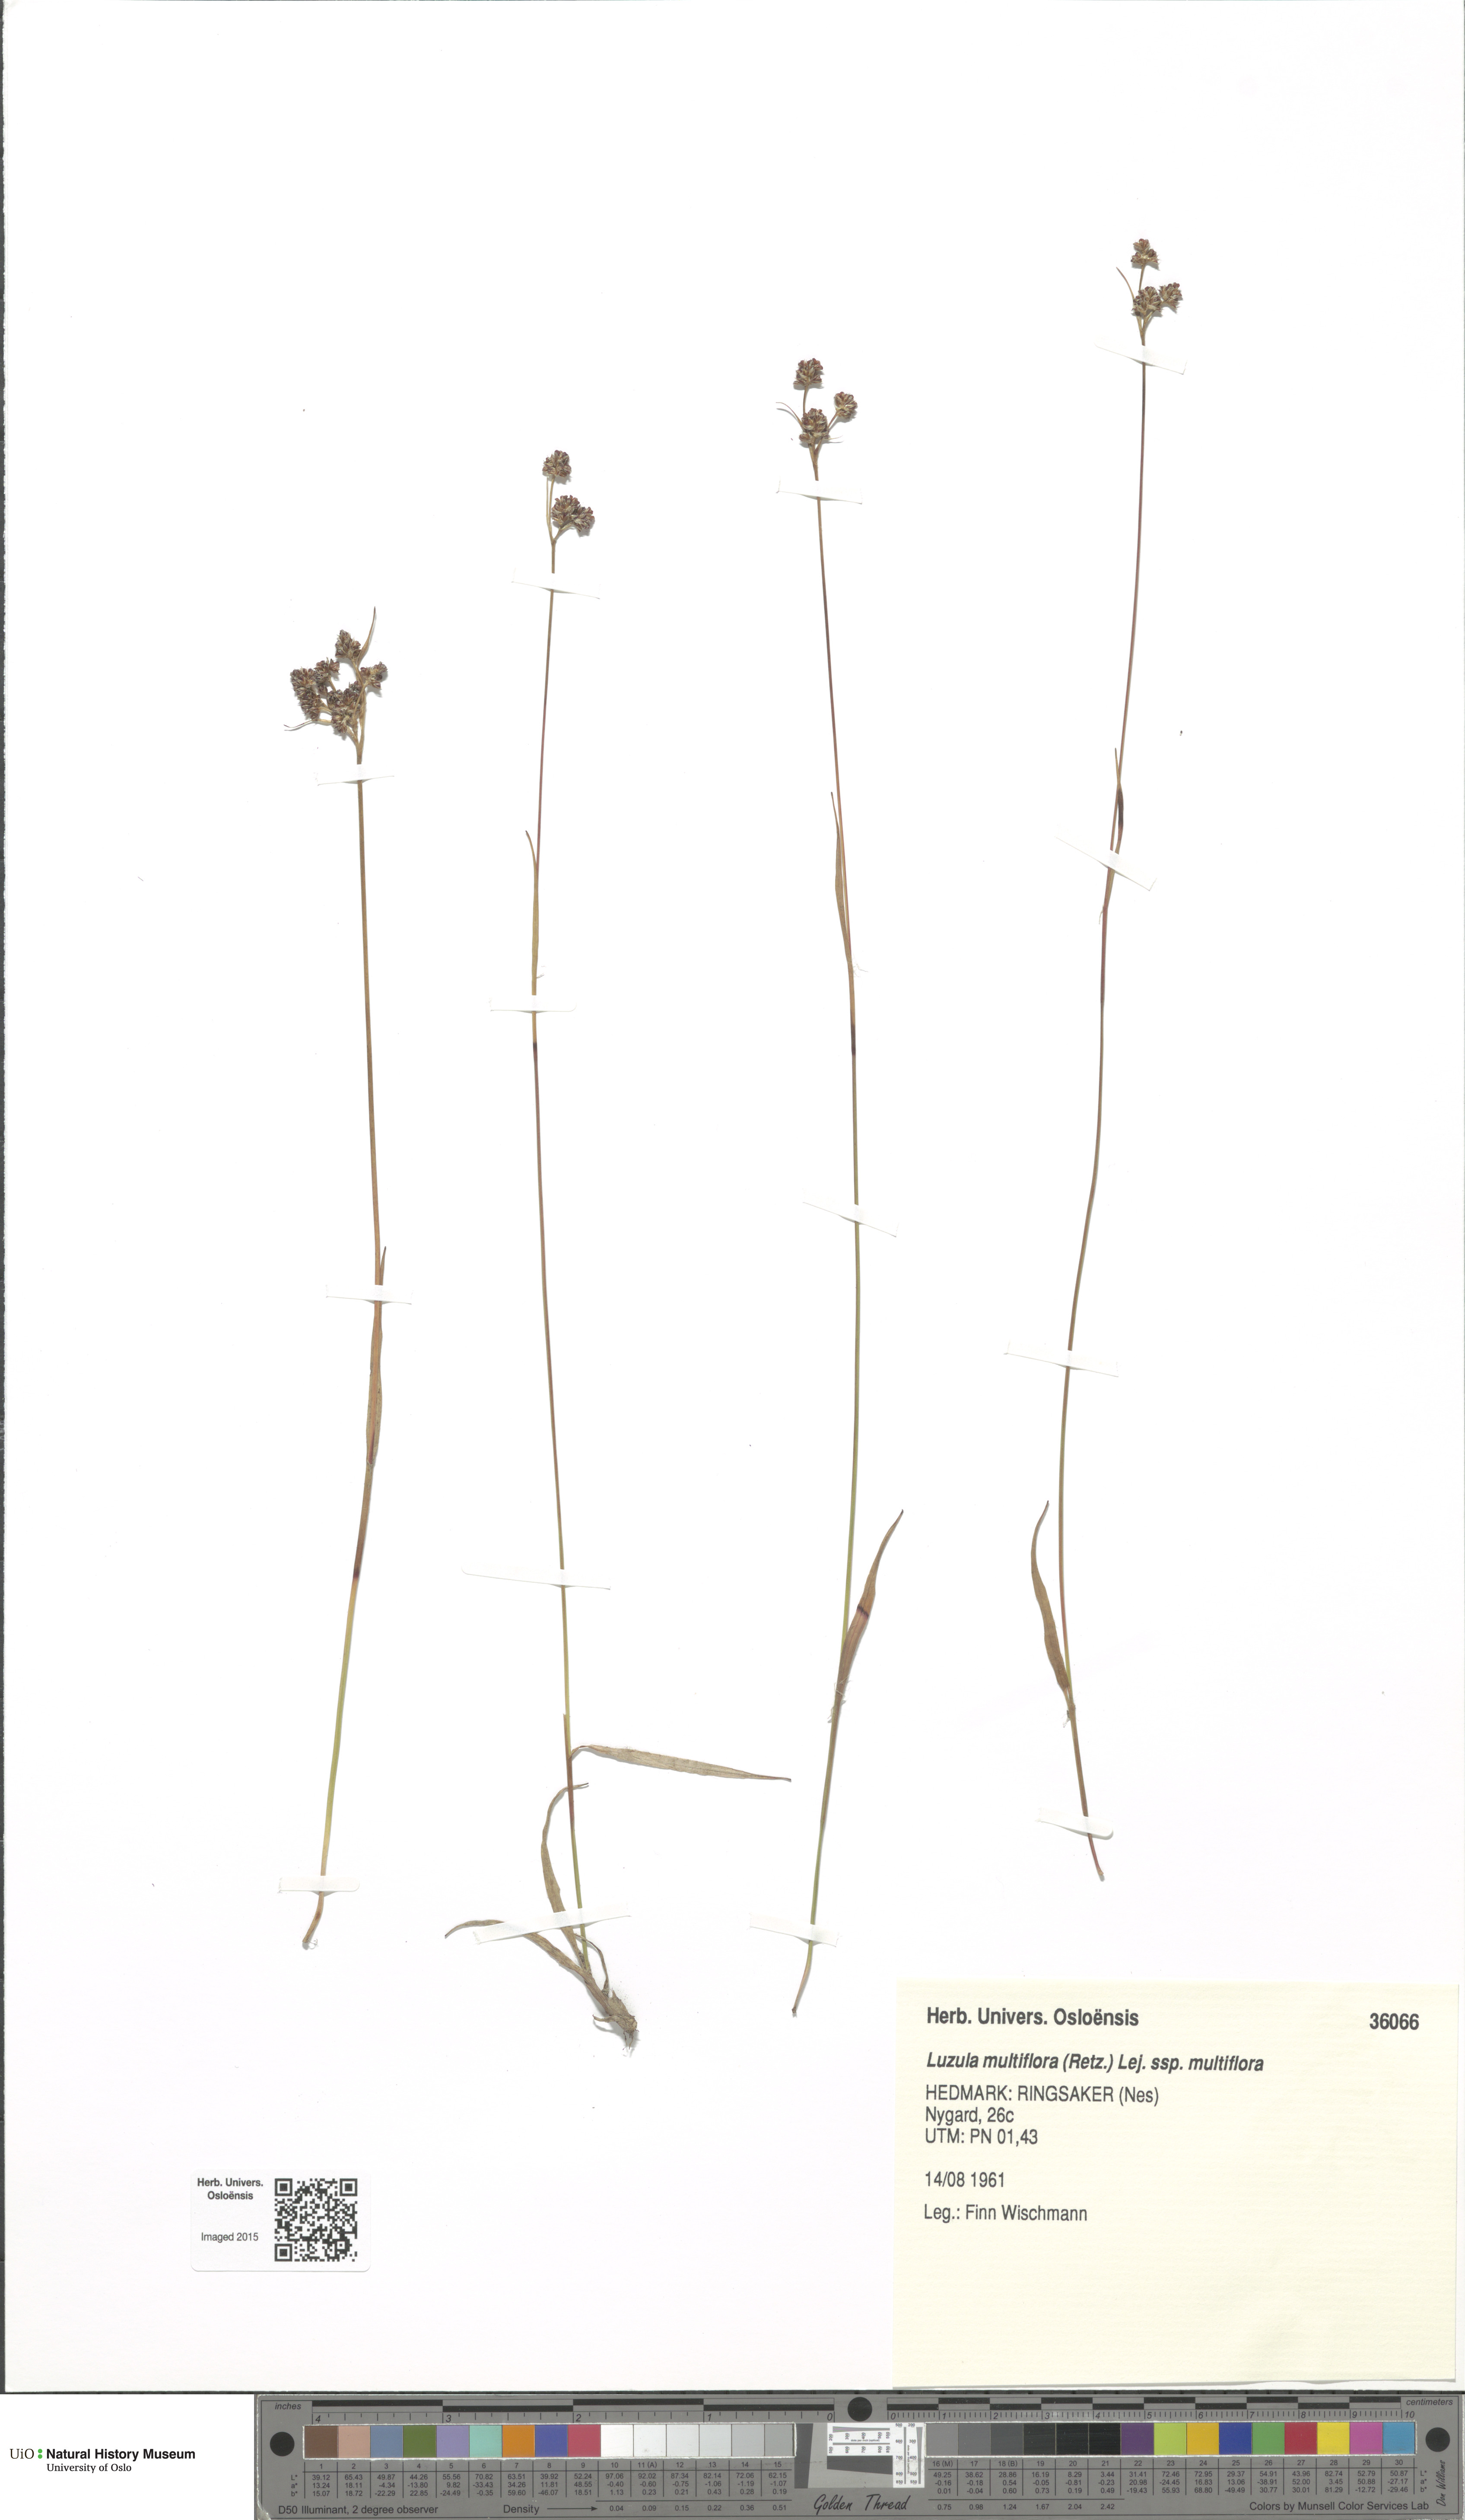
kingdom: Plantae
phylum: Tracheophyta
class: Liliopsida
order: Poales
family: Juncaceae
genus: Luzula
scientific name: Luzula multiflora
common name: Heath wood-rush
